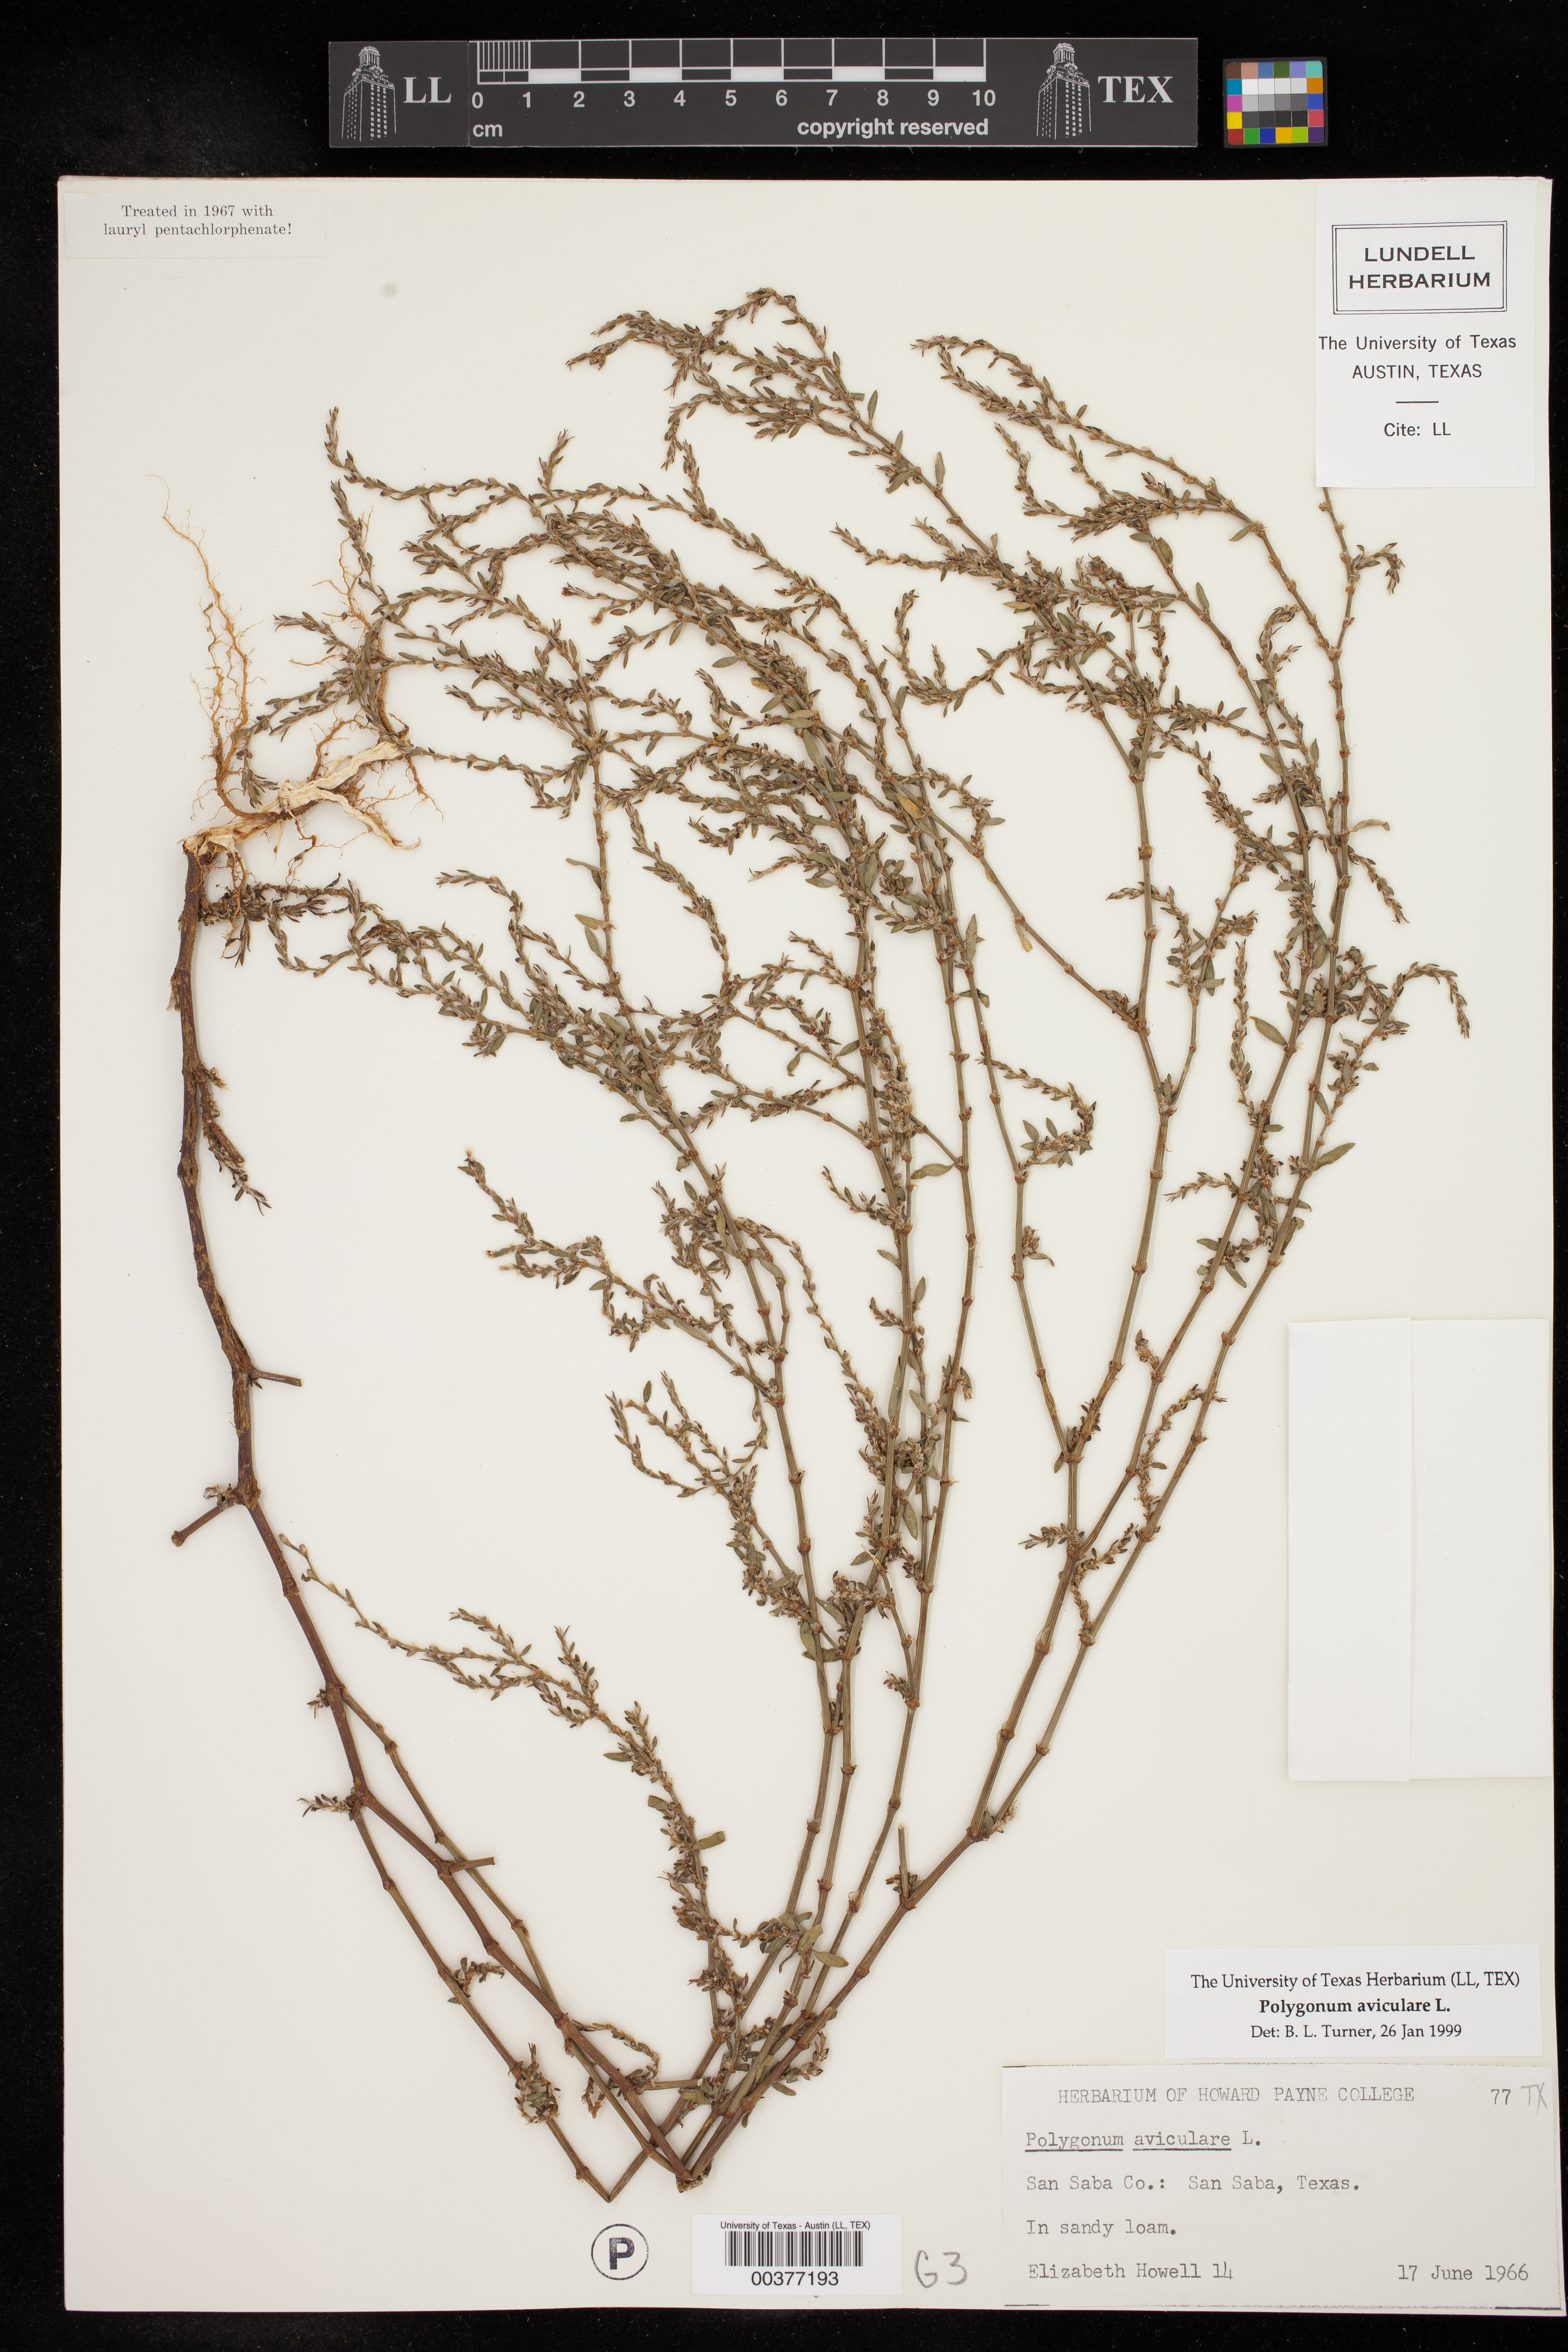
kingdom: Plantae
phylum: Tracheophyta
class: Magnoliopsida
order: Caryophyllales
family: Polygonaceae
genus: Polygonum
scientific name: Polygonum aviculare
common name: Prostrate knotweed
